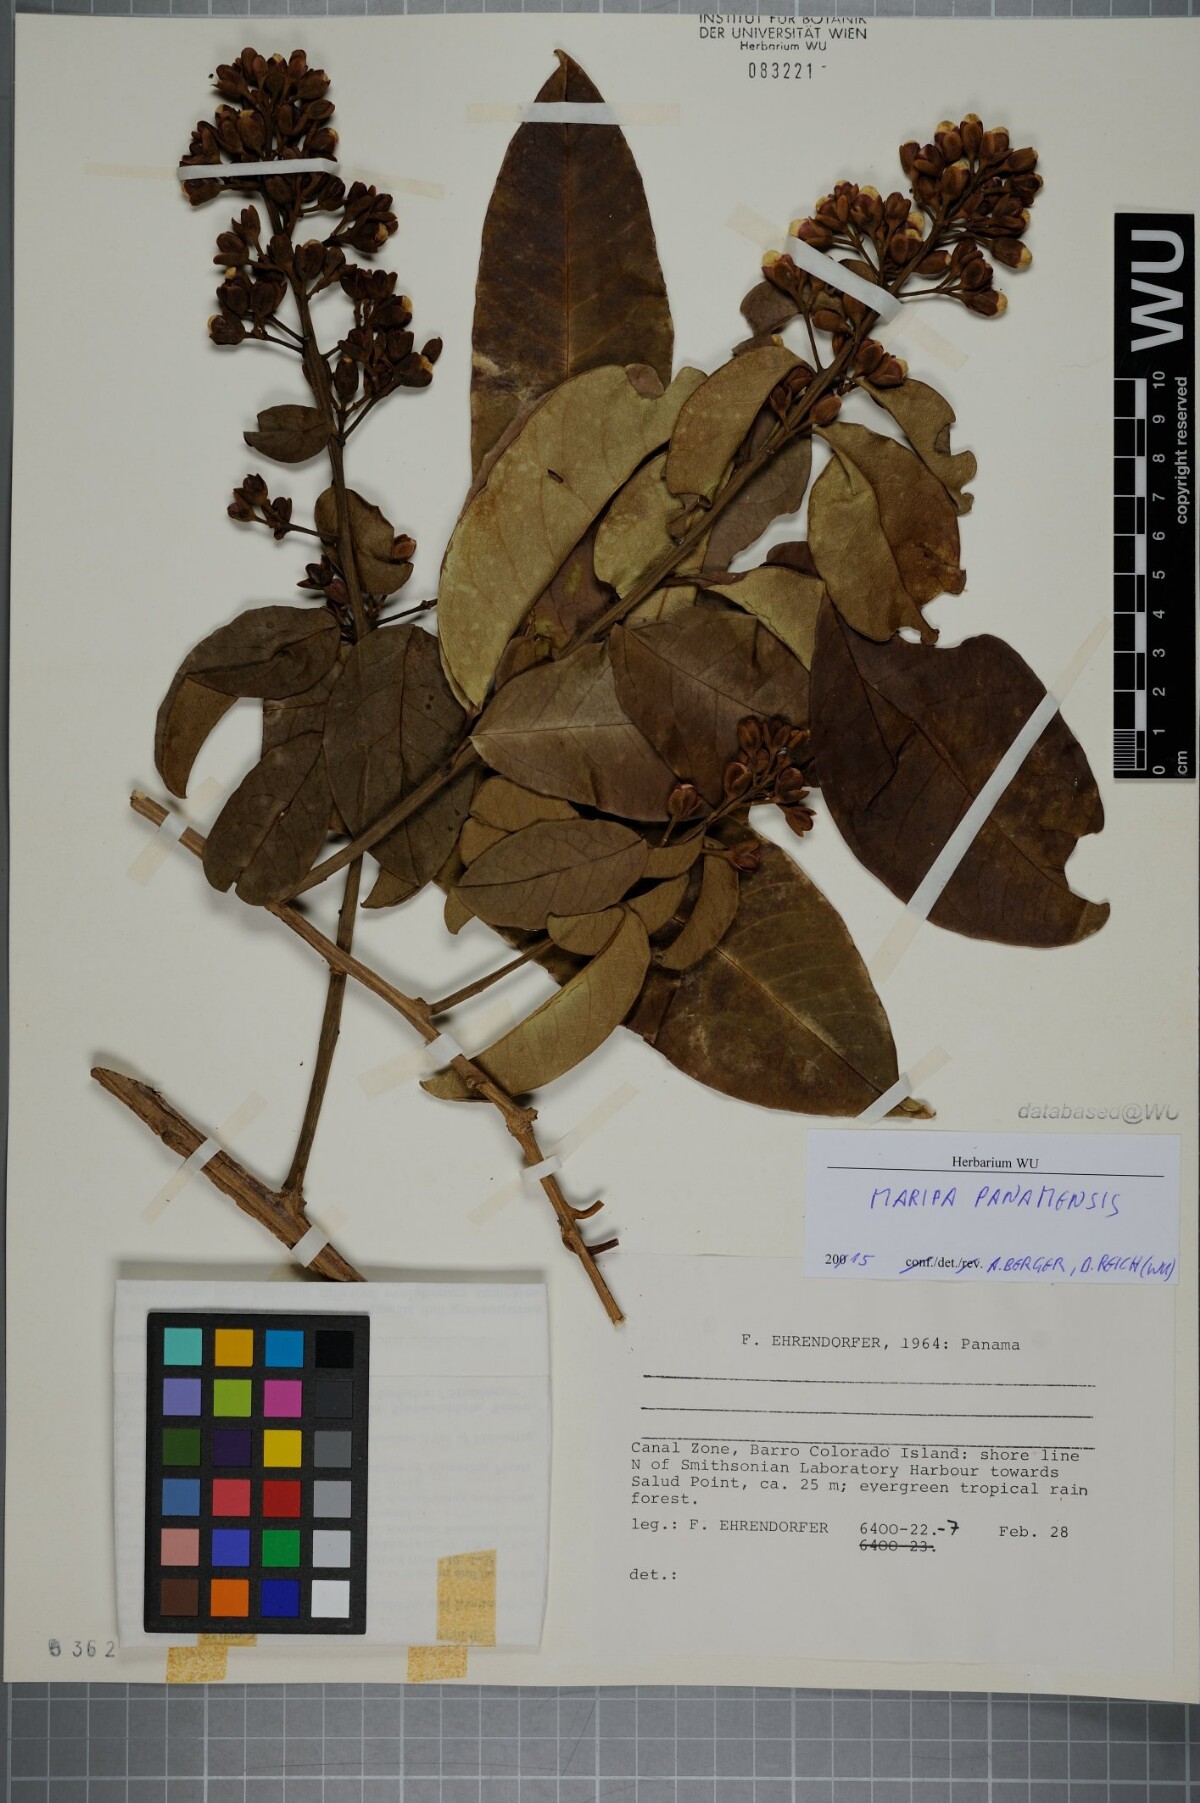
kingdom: Plantae
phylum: Tracheophyta
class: Magnoliopsida
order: Solanales
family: Convolvulaceae
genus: Maripa
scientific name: Maripa panamensis
